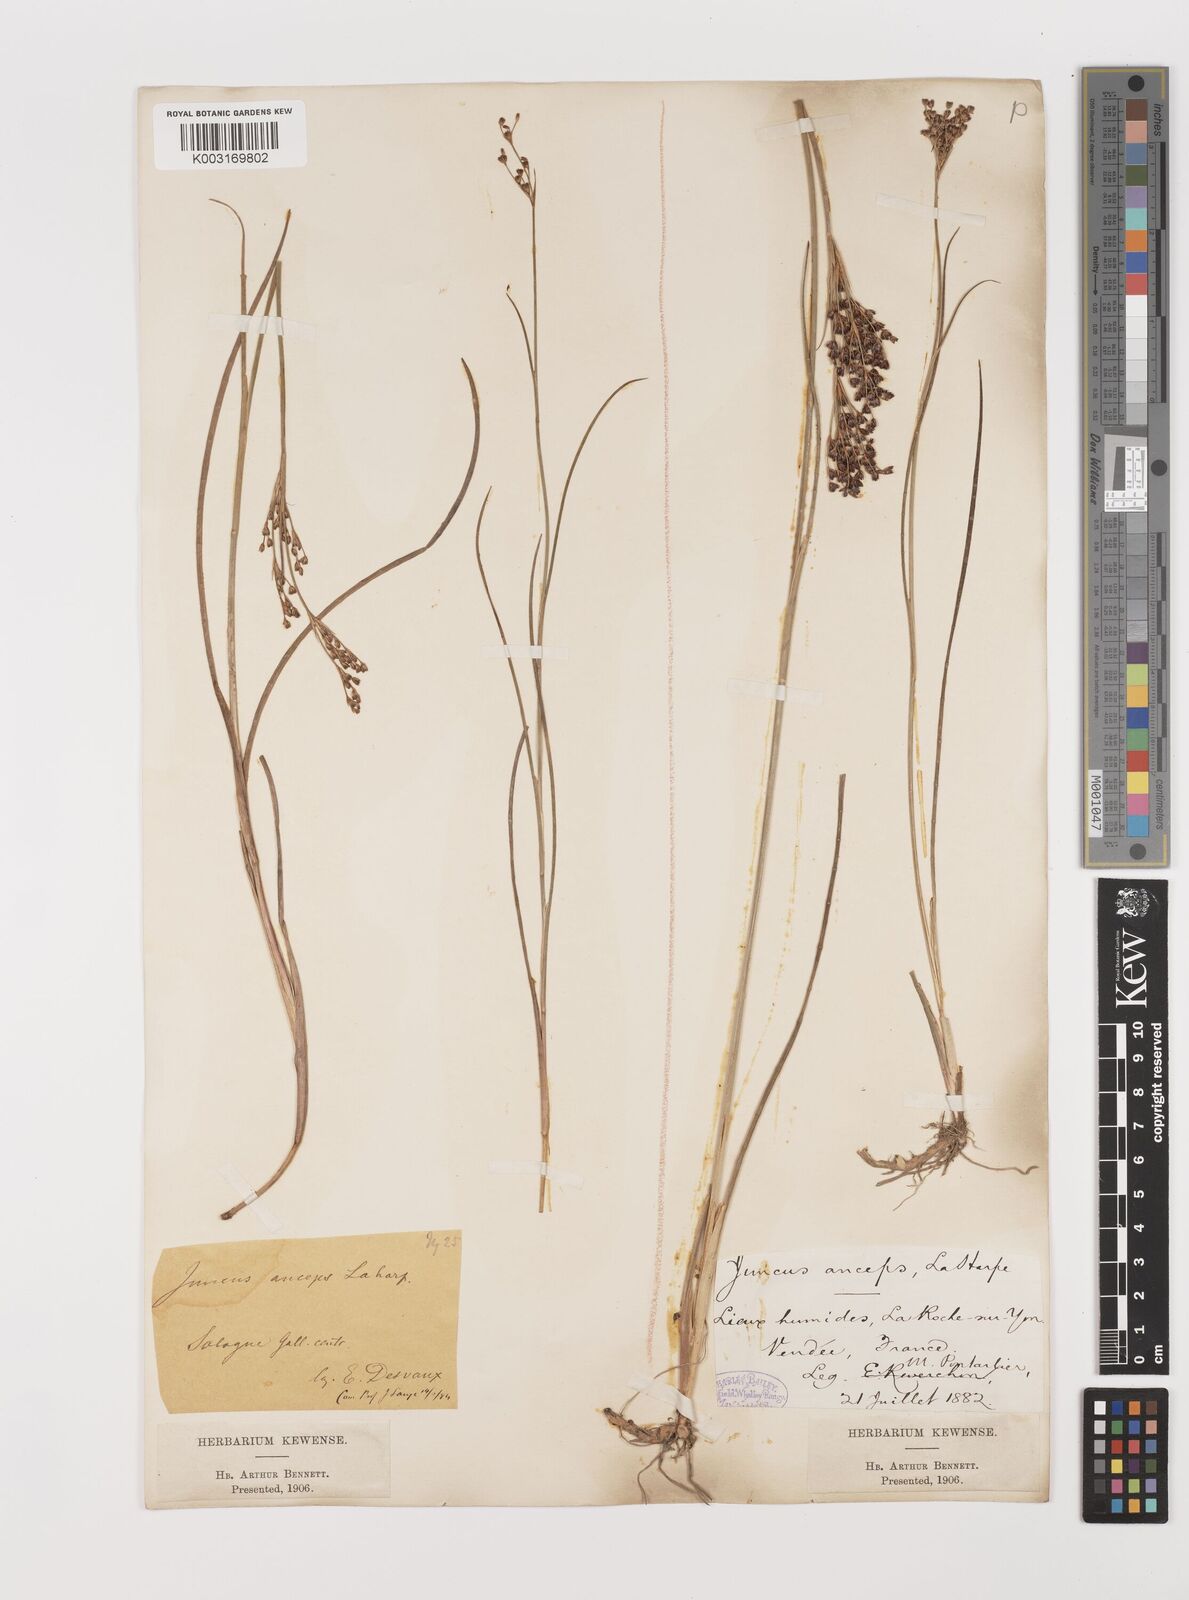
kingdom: Plantae
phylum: Tracheophyta
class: Liliopsida
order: Poales
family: Juncaceae
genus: Juncus
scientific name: Juncus anceps
